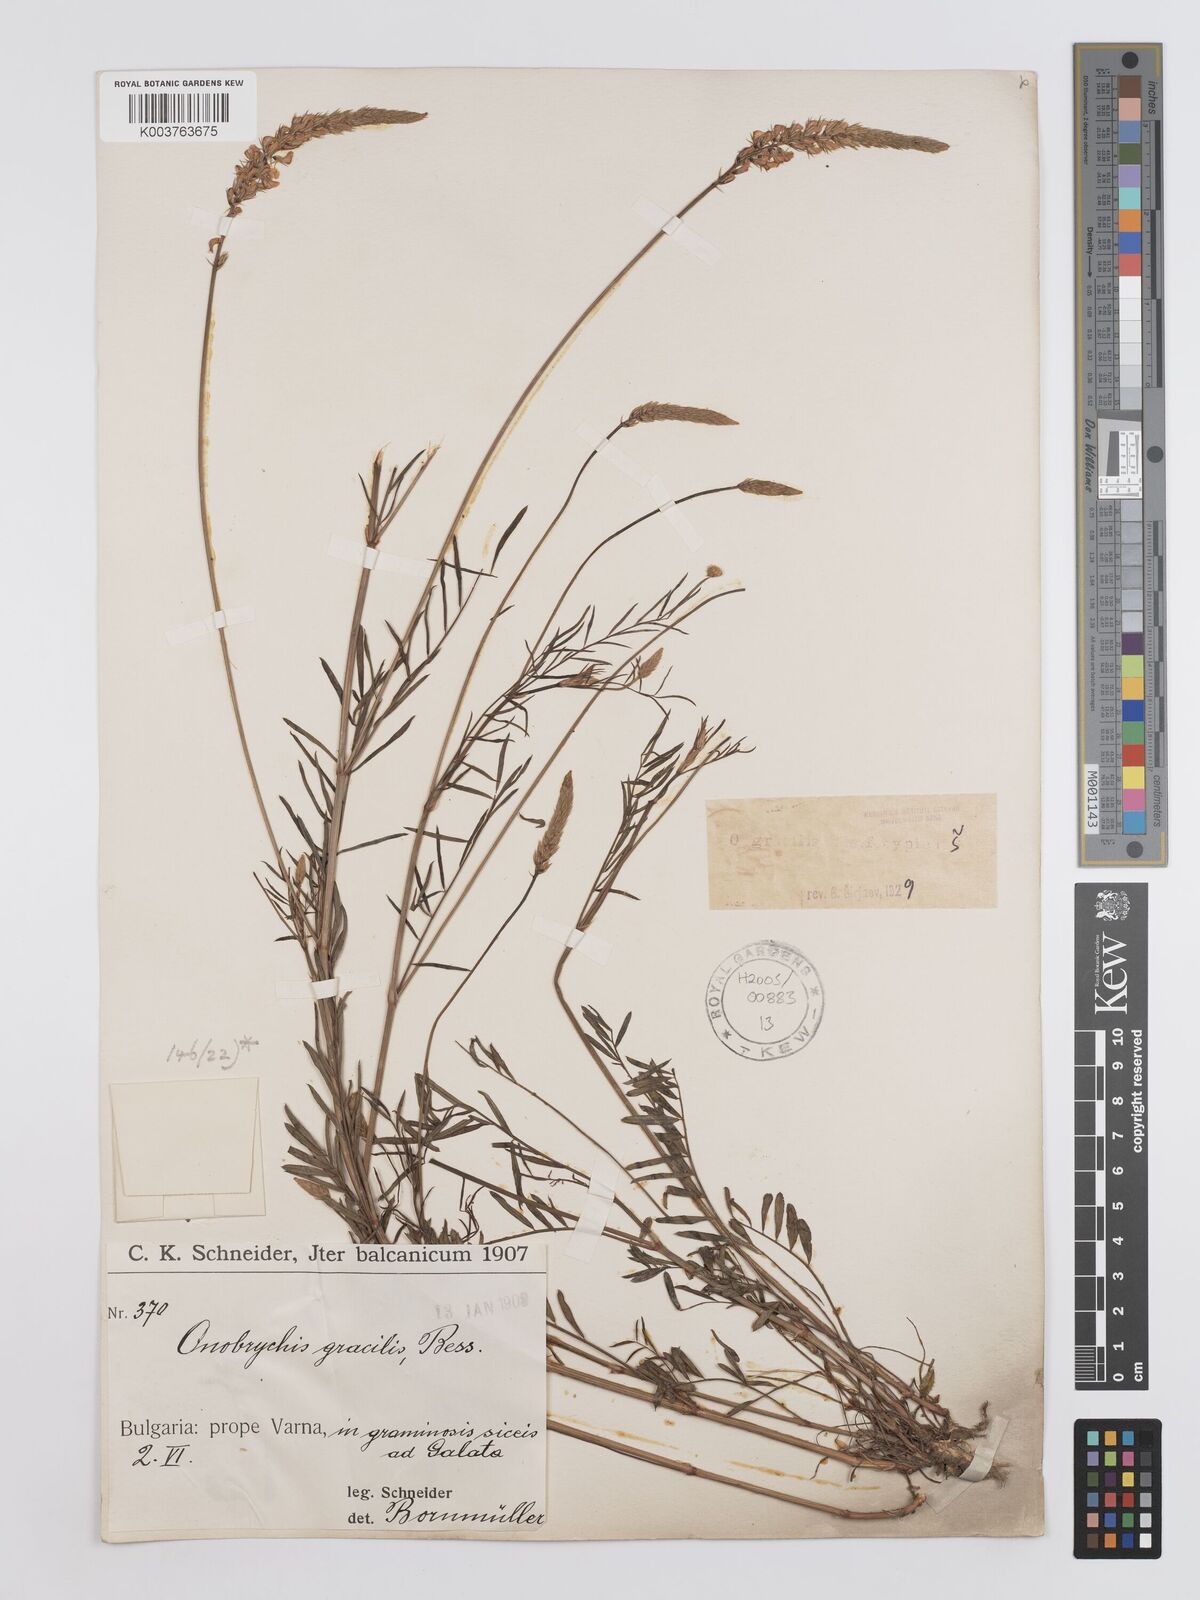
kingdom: Plantae
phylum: Tracheophyta
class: Magnoliopsida
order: Fabales
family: Fabaceae
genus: Onobrychis
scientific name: Onobrychis gracilis
